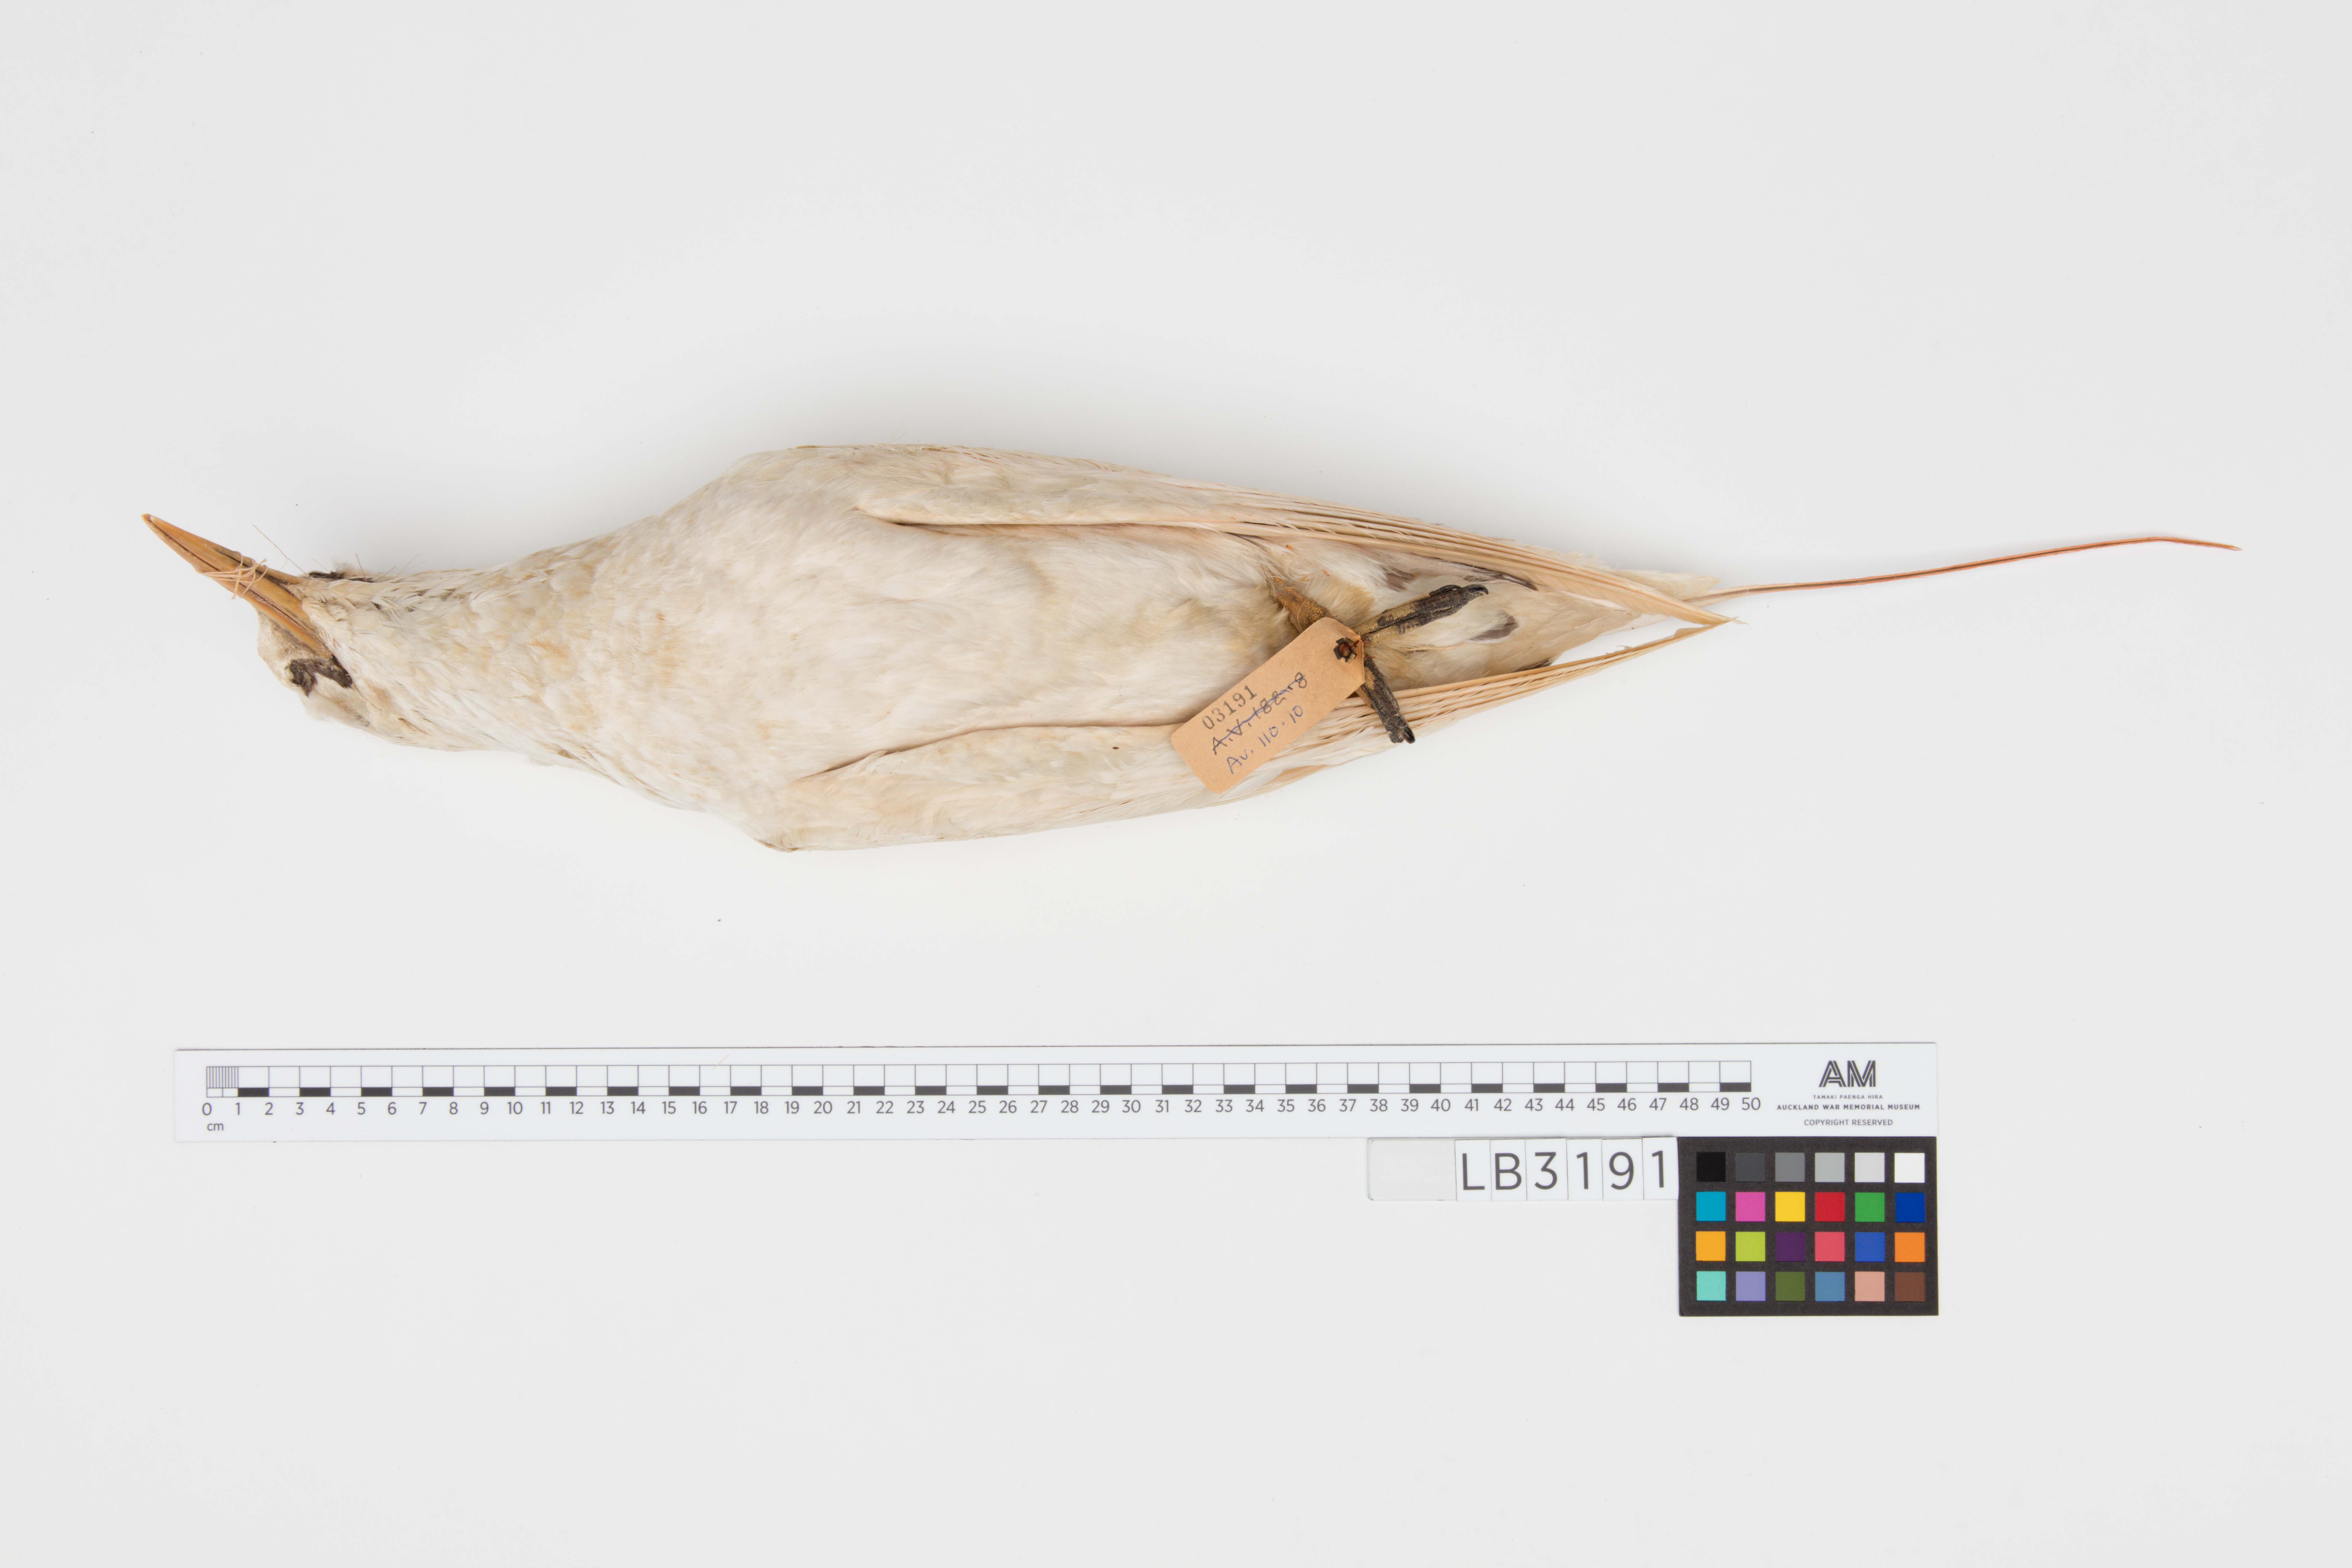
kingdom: Animalia
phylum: Chordata
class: Aves
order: Phaethontiformes
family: Phaethontidae
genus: Phaethon
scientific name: Phaethon rubricauda
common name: Red-tailed tropicbird
